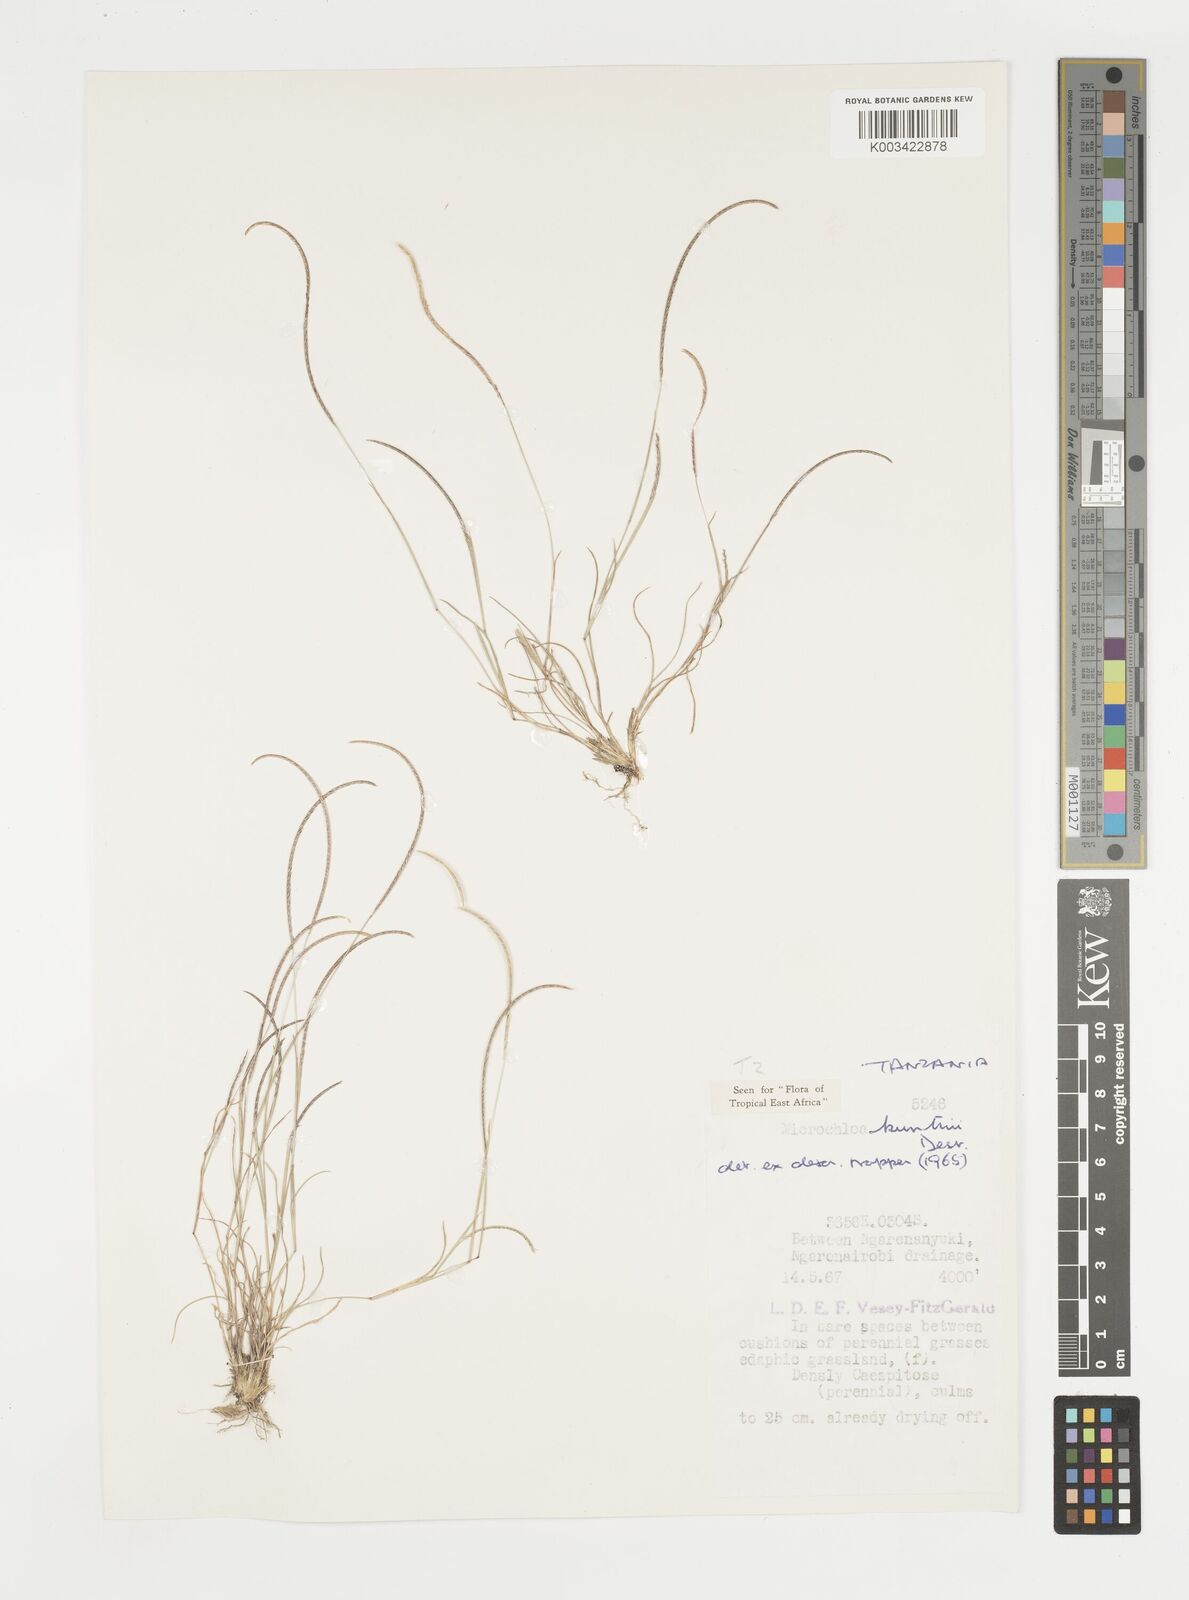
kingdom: Plantae
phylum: Tracheophyta
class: Liliopsida
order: Poales
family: Poaceae
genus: Microchloa
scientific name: Microchloa kunthii
